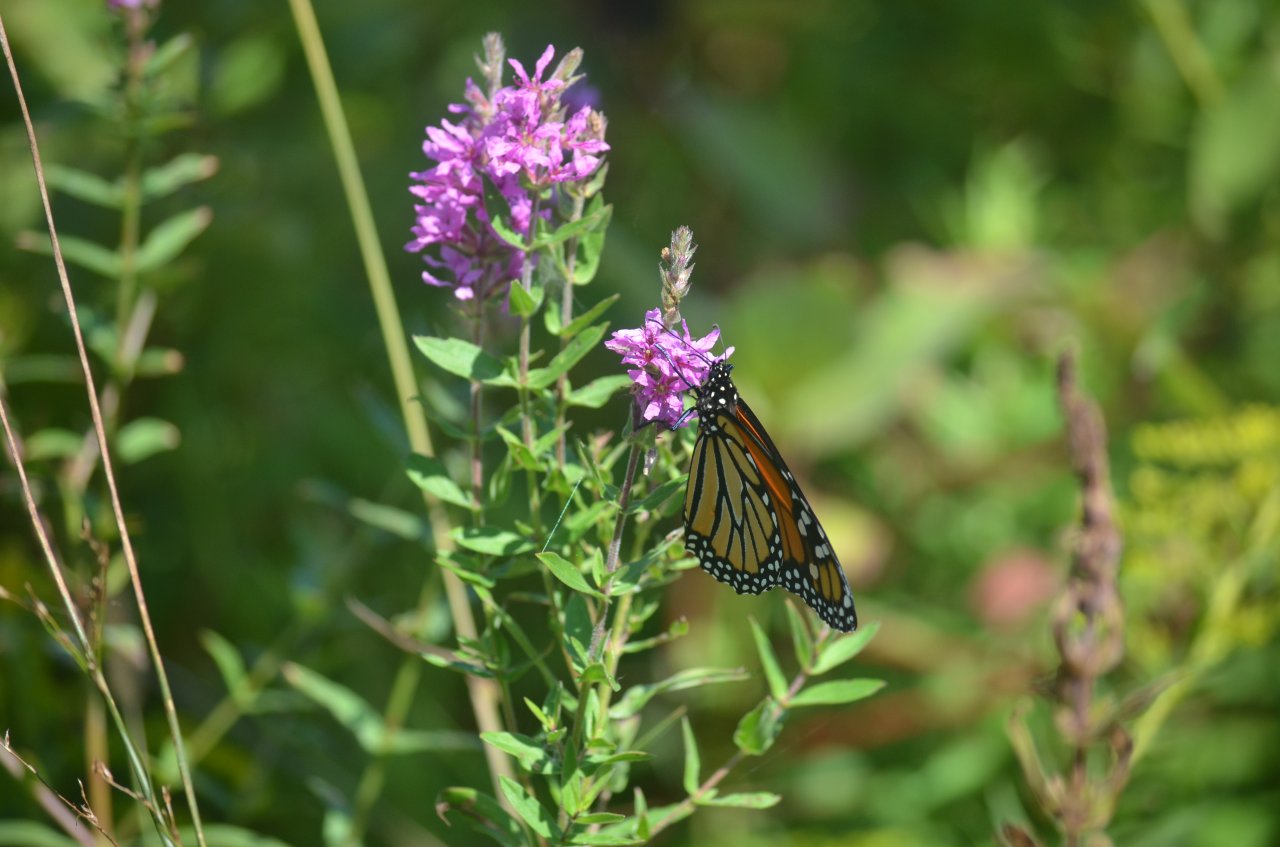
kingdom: Animalia
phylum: Arthropoda
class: Insecta
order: Lepidoptera
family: Nymphalidae
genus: Danaus
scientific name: Danaus plexippus
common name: Monarch
